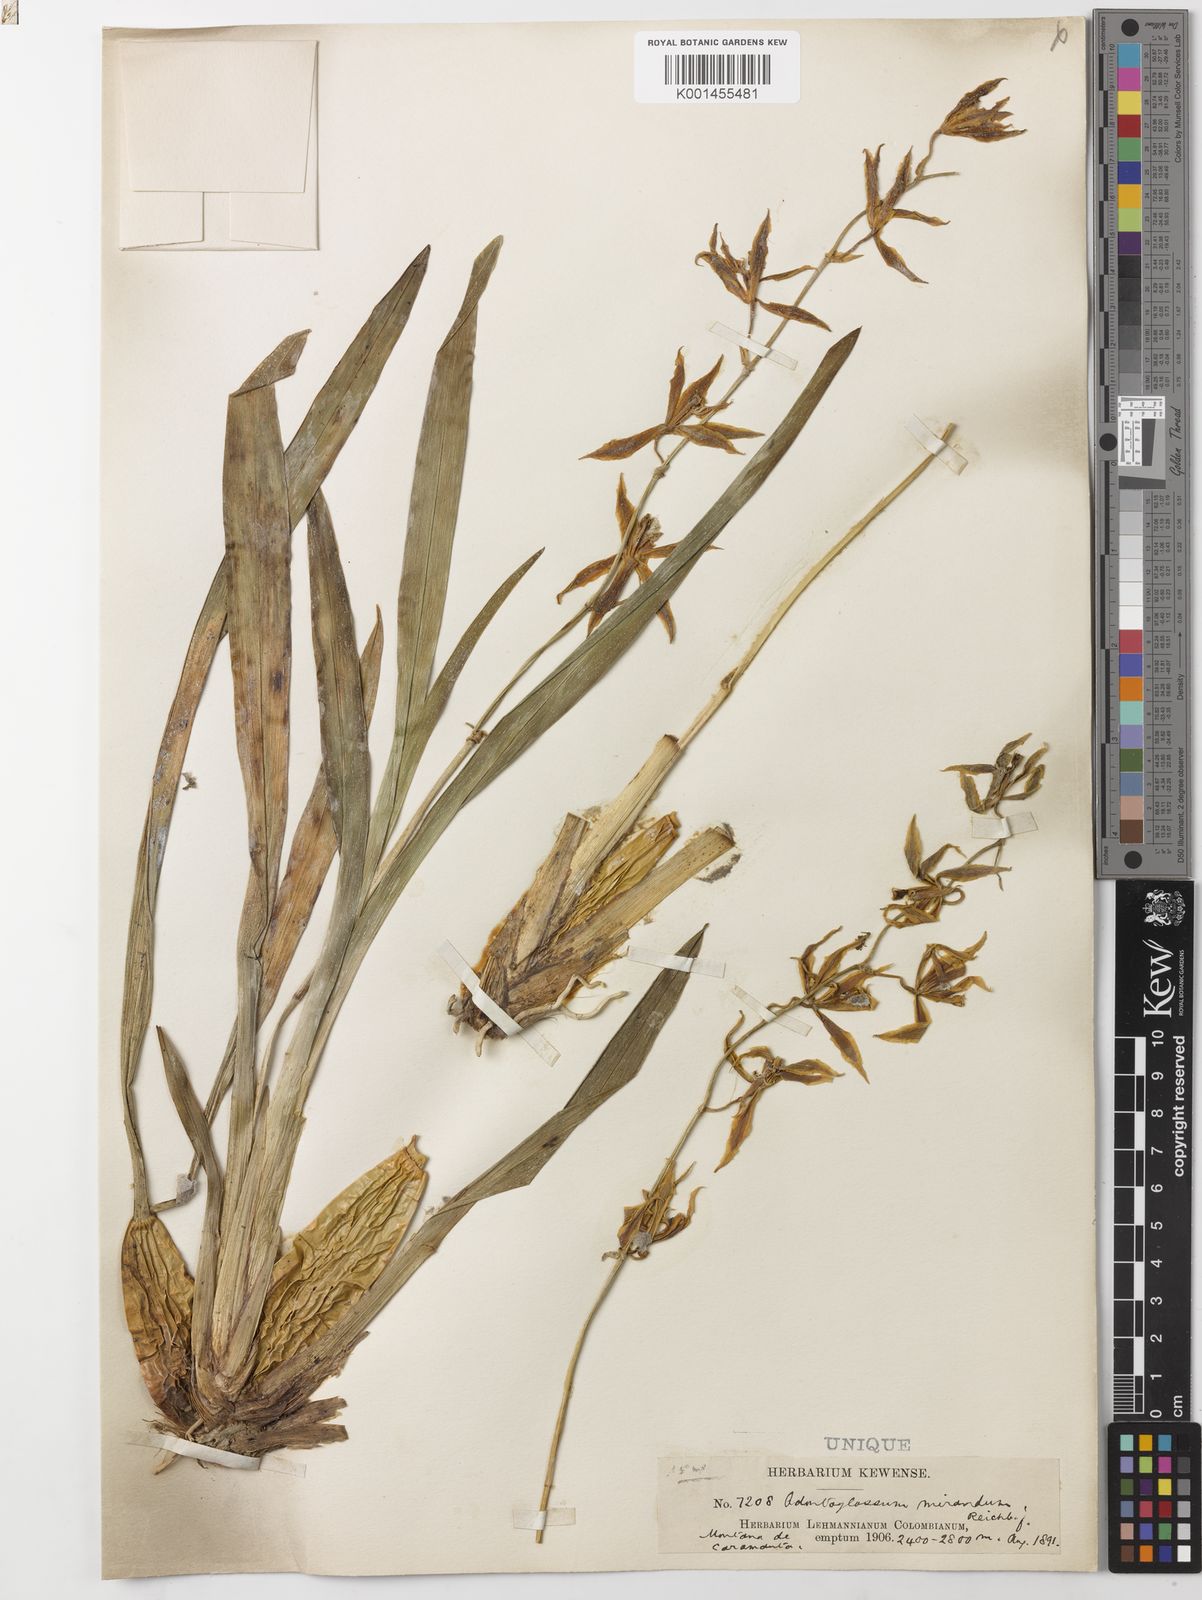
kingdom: Plantae
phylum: Tracheophyta
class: Liliopsida
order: Asparagales
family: Orchidaceae
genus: Oncidium
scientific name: Oncidium mirandum
